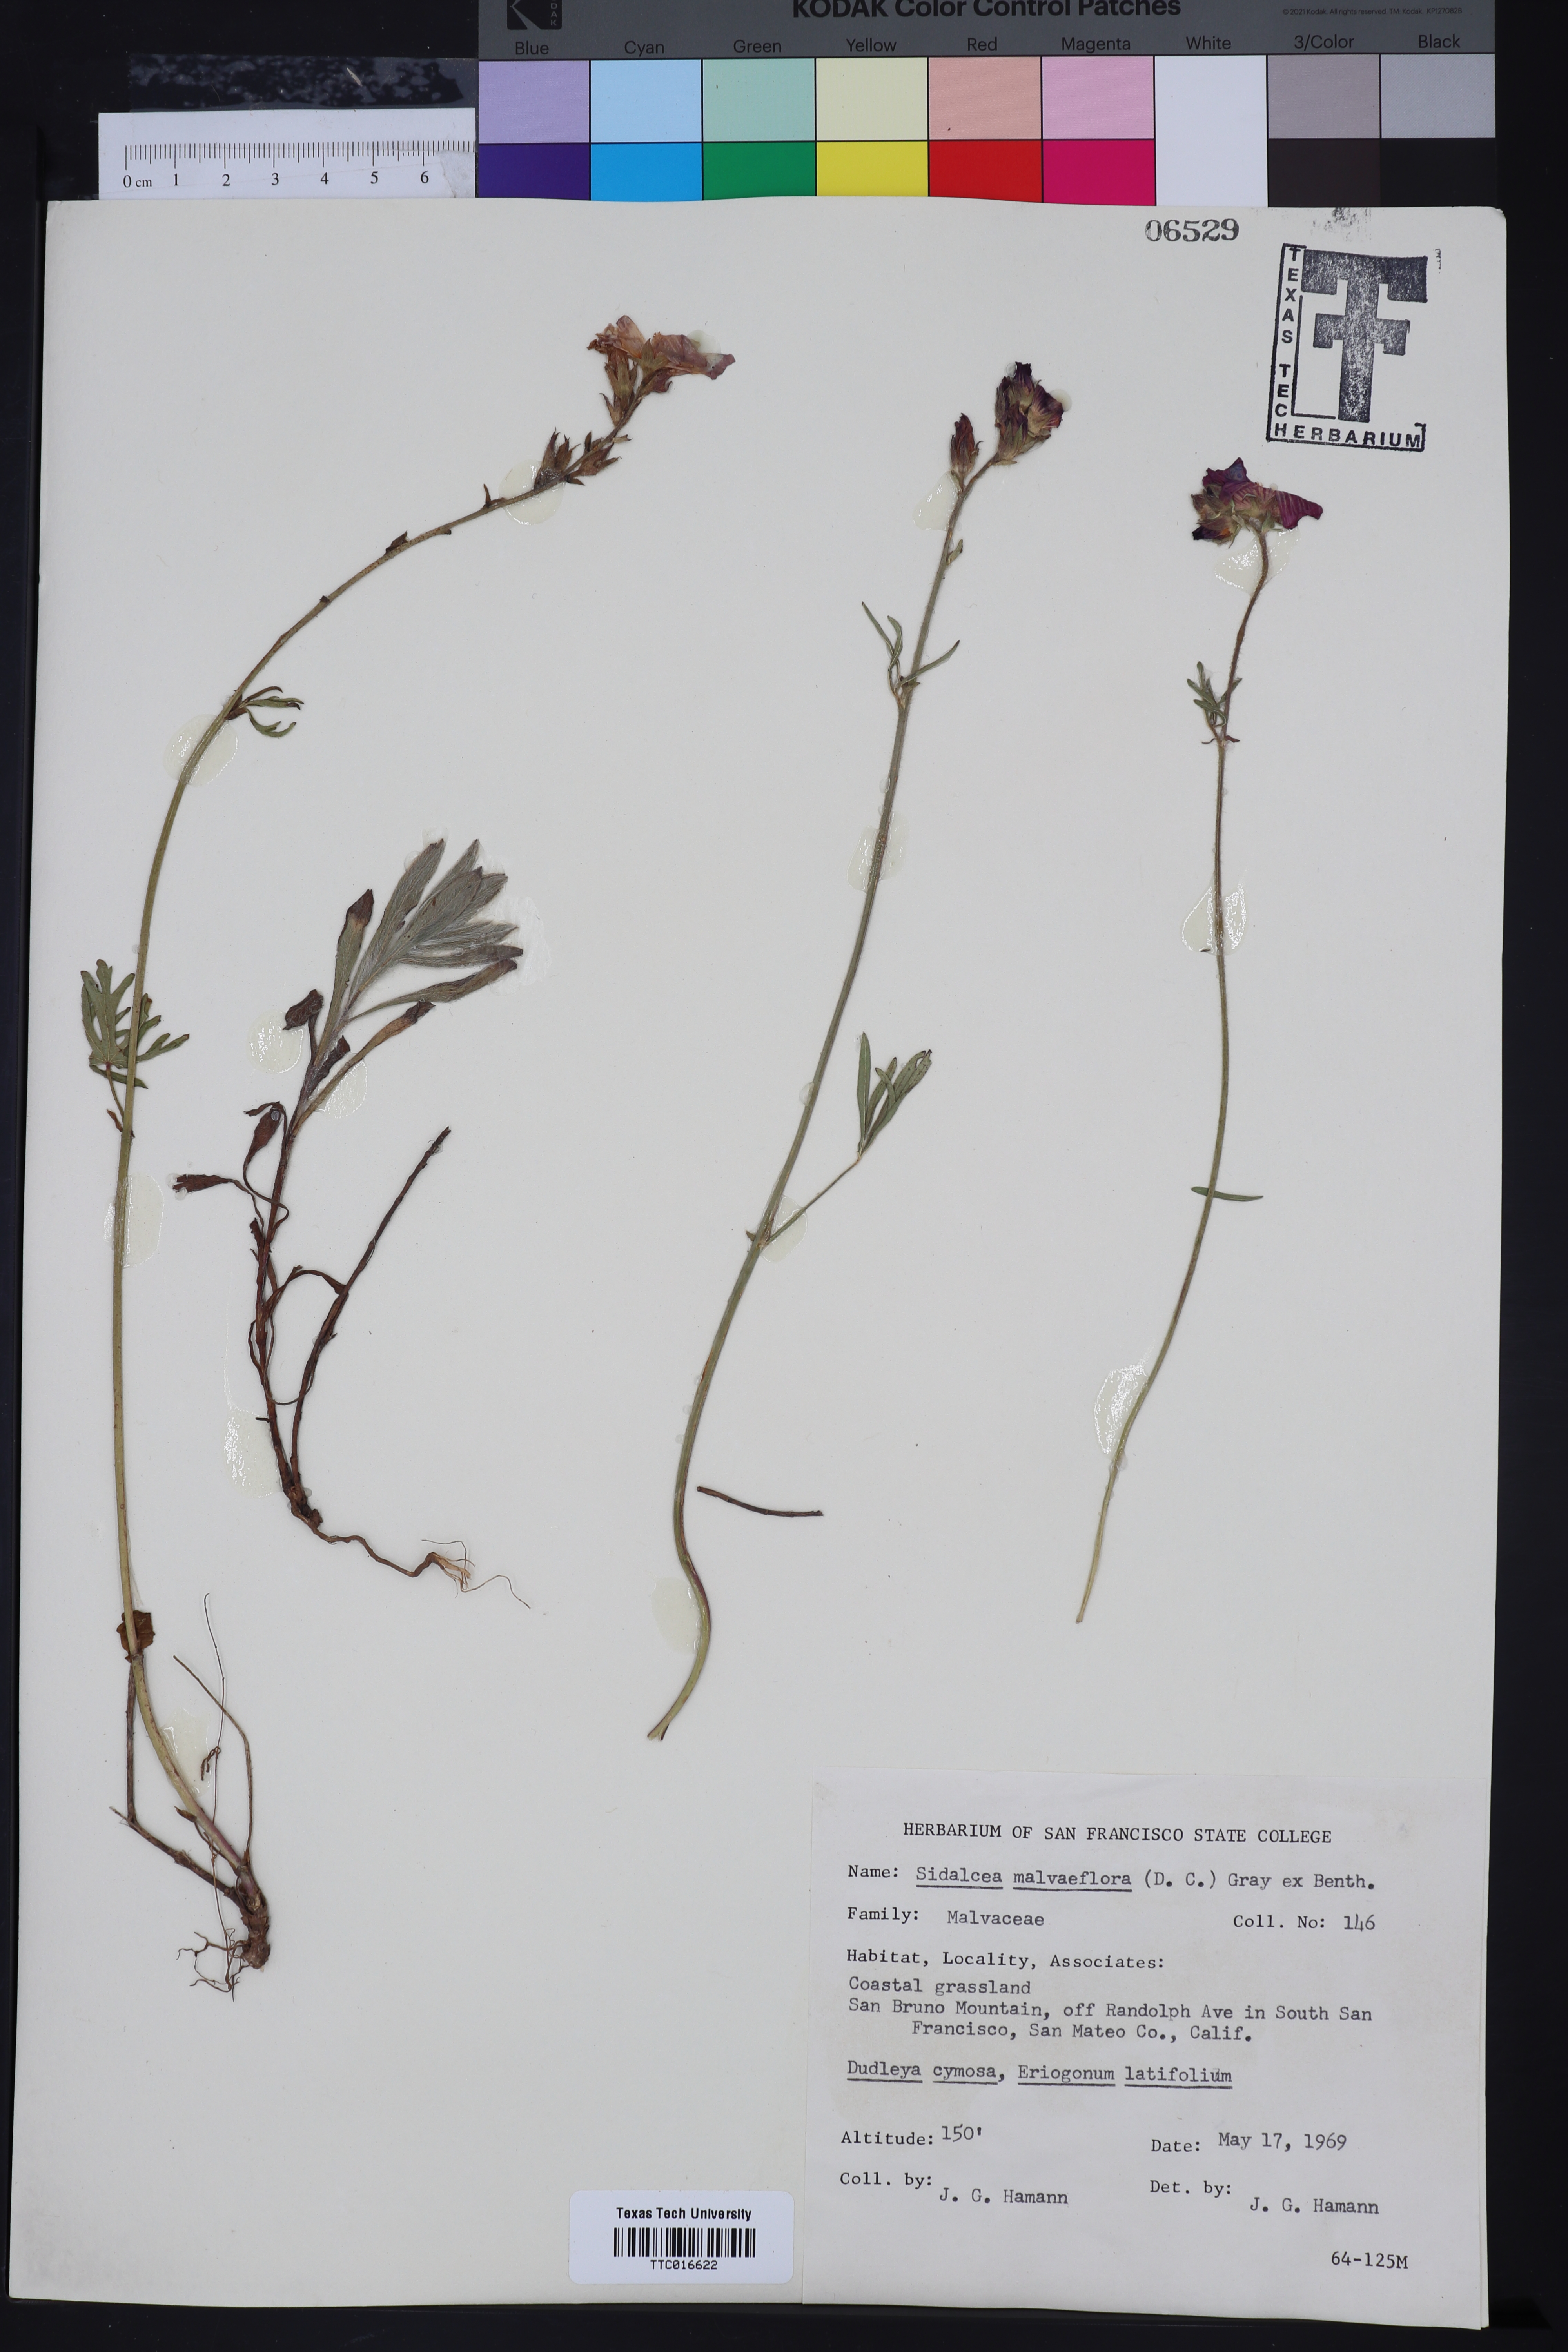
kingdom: Plantae
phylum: Tracheophyta
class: Magnoliopsida
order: Malvales
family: Malvaceae
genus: Sidalcea
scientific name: Sidalcea malviflora
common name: Greek mallow
